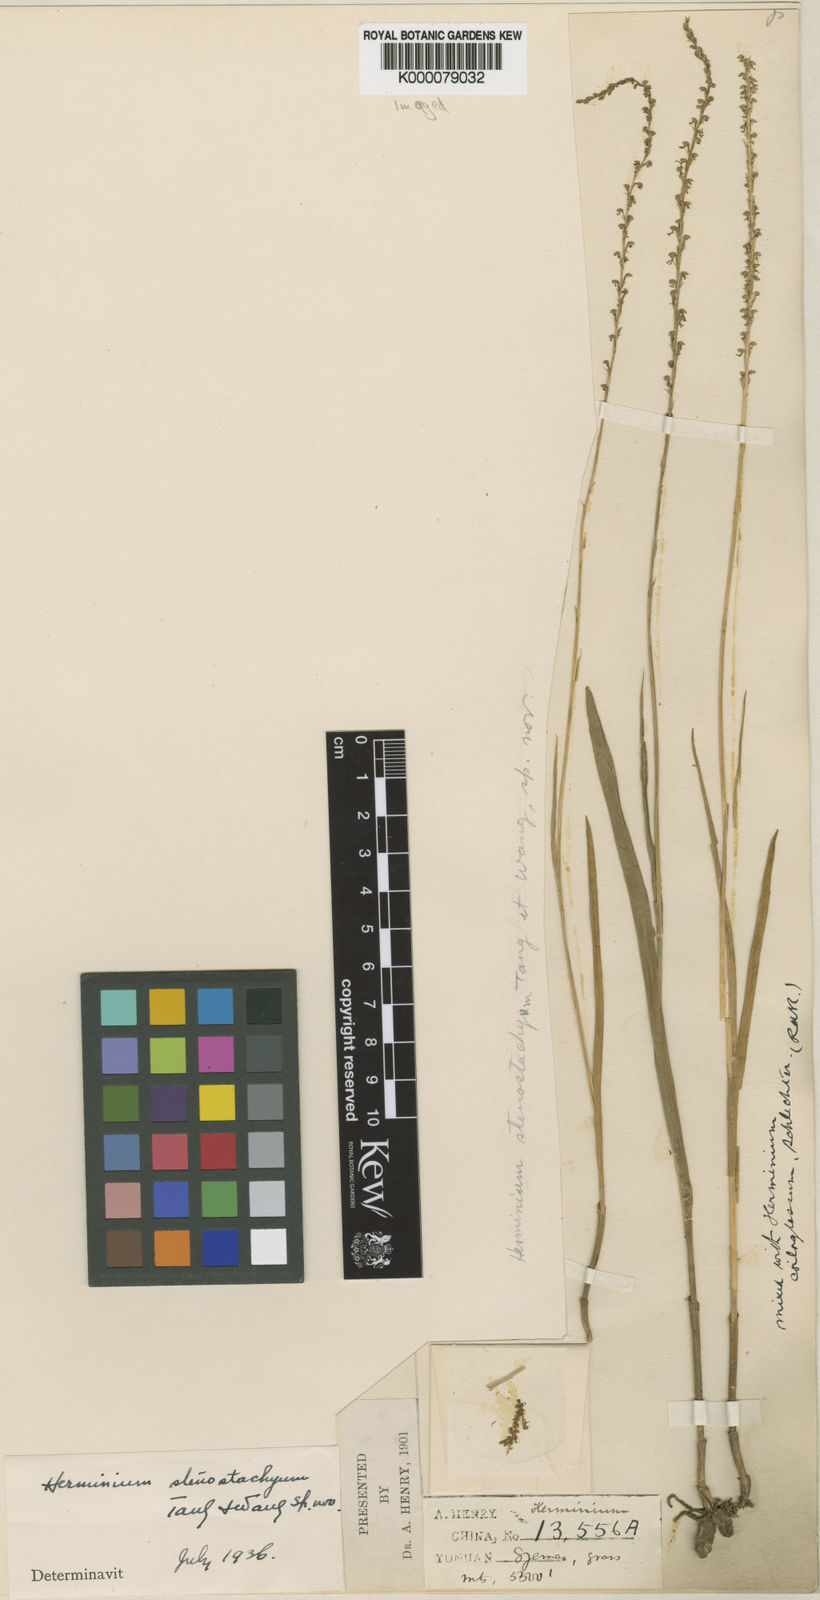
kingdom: Plantae
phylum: Tracheophyta
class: Liliopsida
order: Asparagales
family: Orchidaceae
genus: Herminium
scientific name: Herminium lanceum
